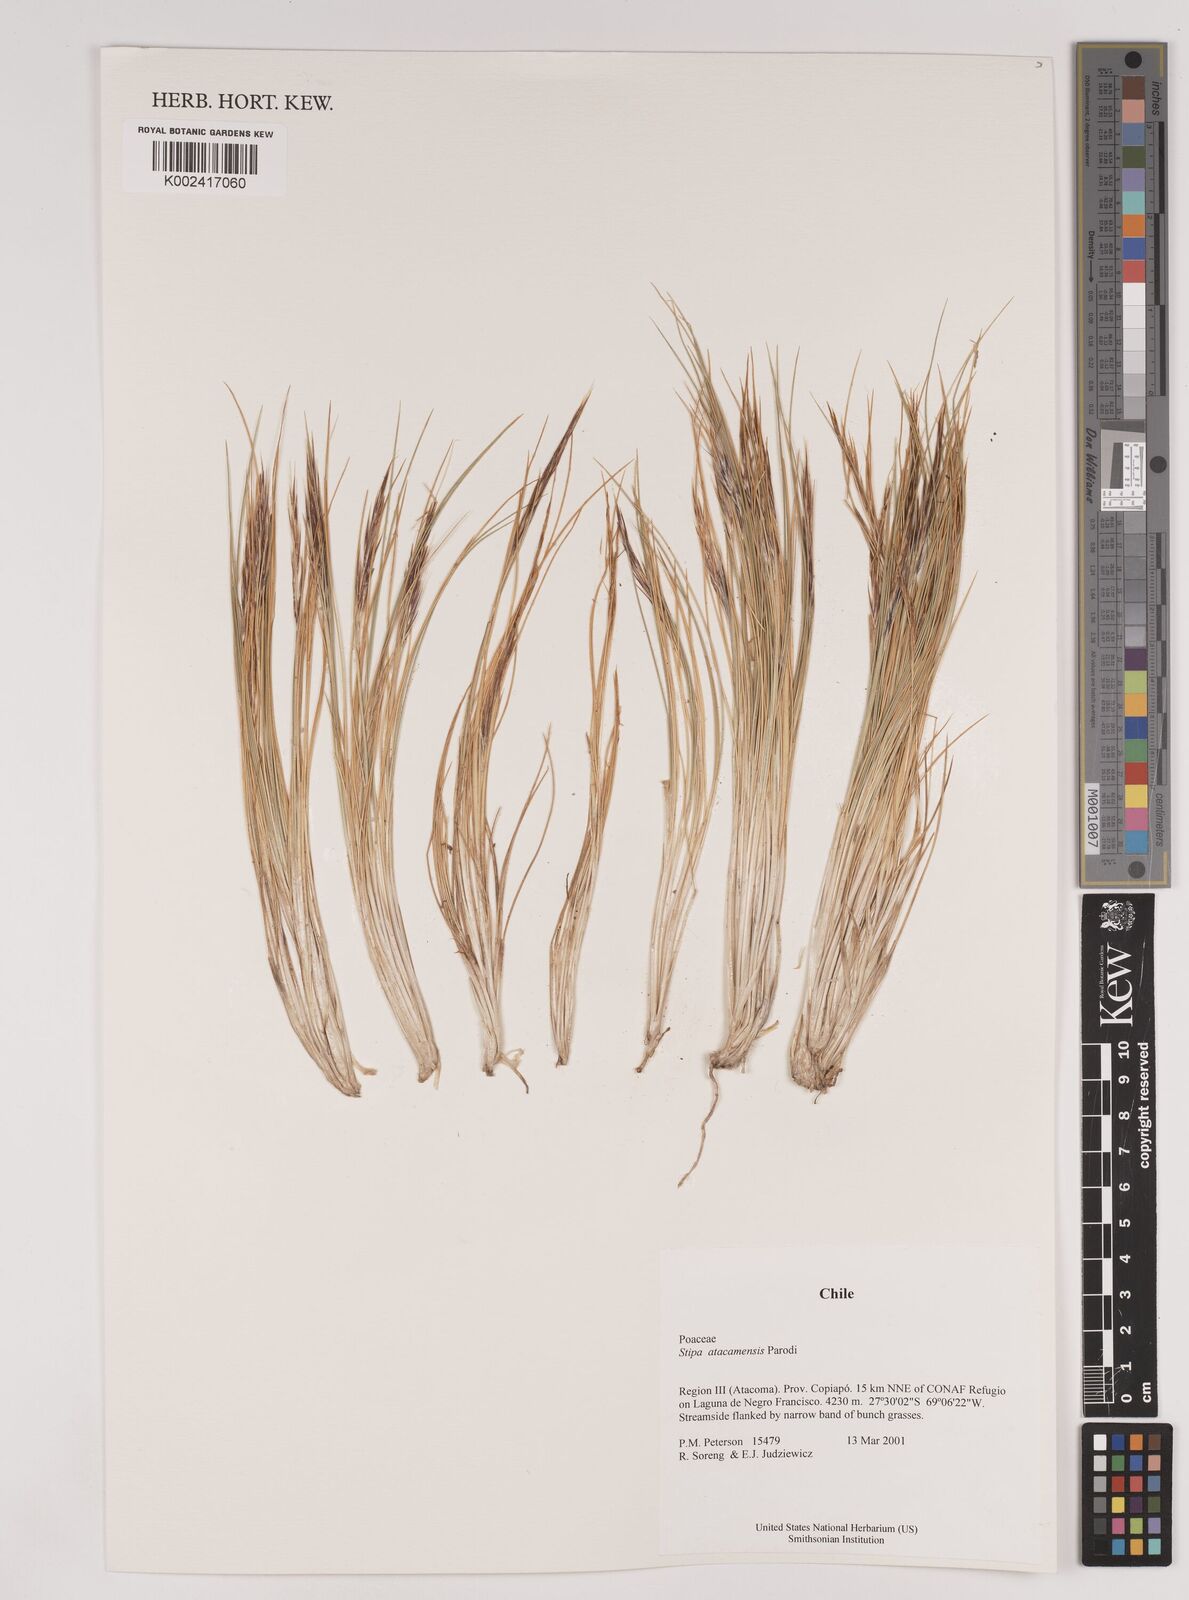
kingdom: Plantae
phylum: Tracheophyta
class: Liliopsida
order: Poales
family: Poaceae
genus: Pappostipa
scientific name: Pappostipa atacamensis
